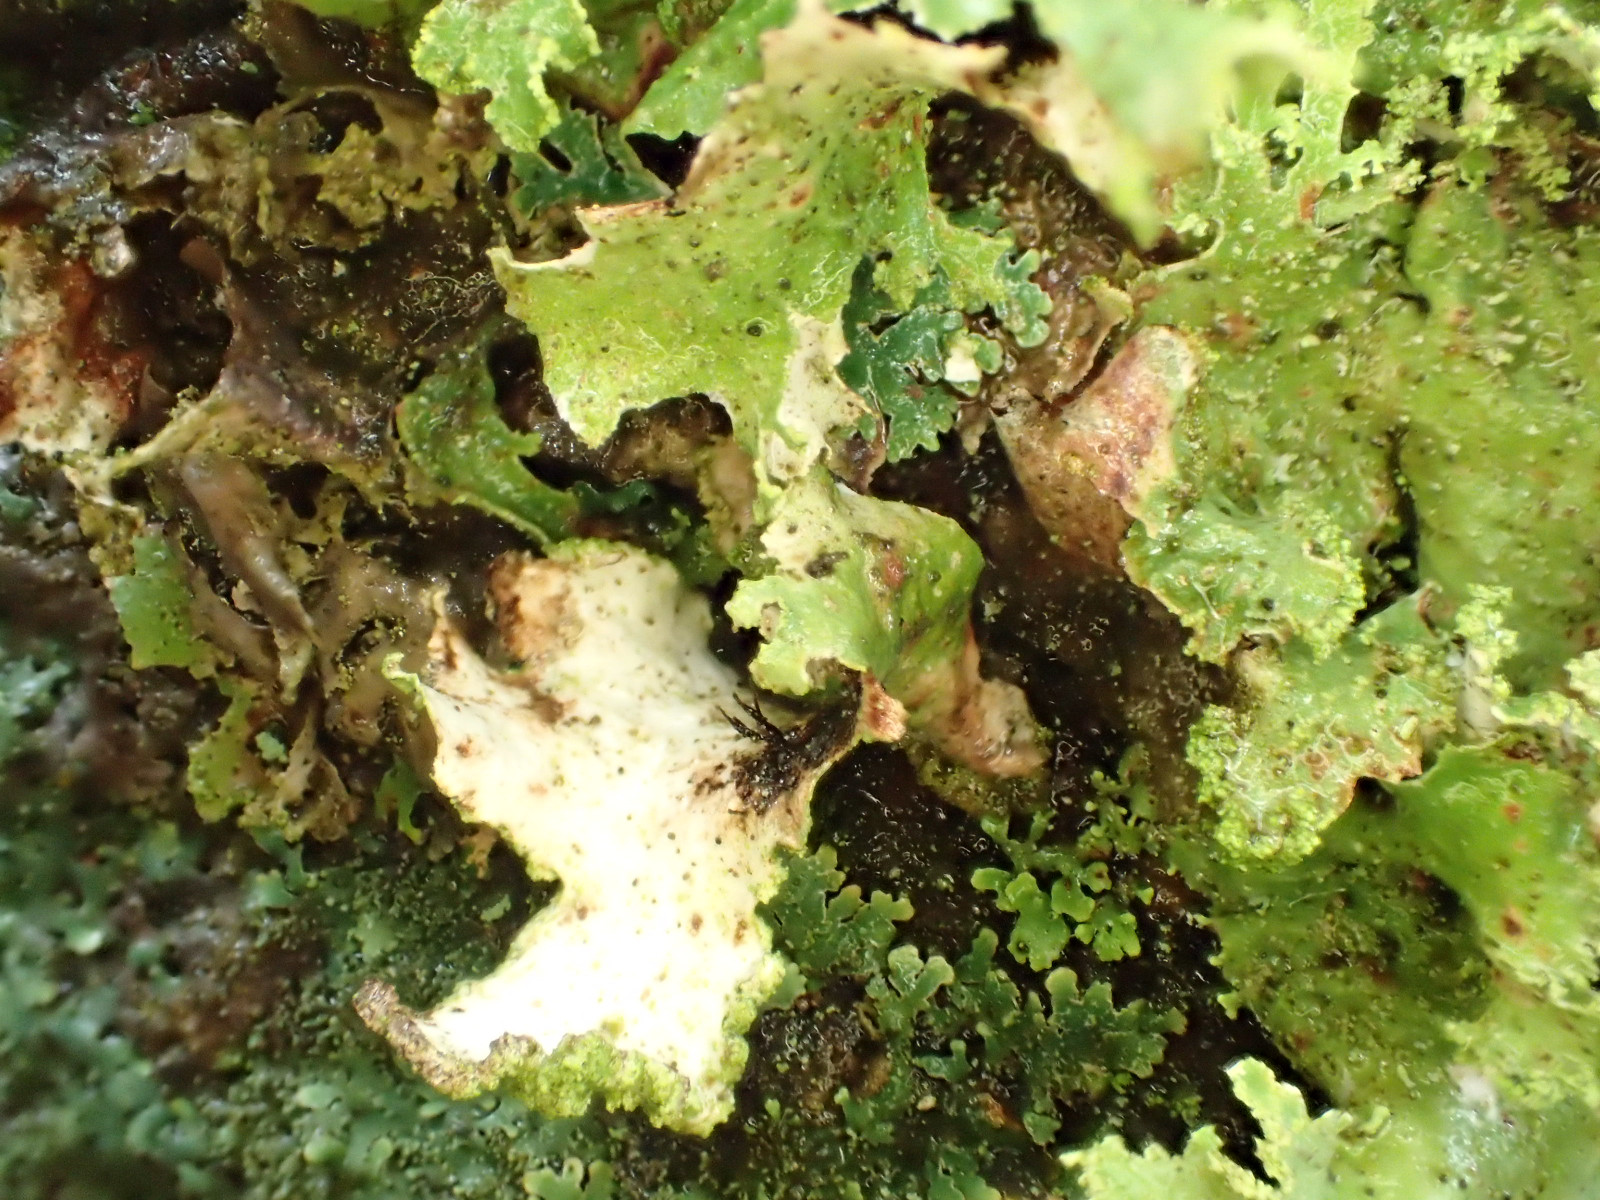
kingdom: Fungi
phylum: Ascomycota
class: Lecanoromycetes
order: Lecanorales
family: Parmeliaceae
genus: Platismatia
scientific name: Platismatia glauca
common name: blågrå papirlav
